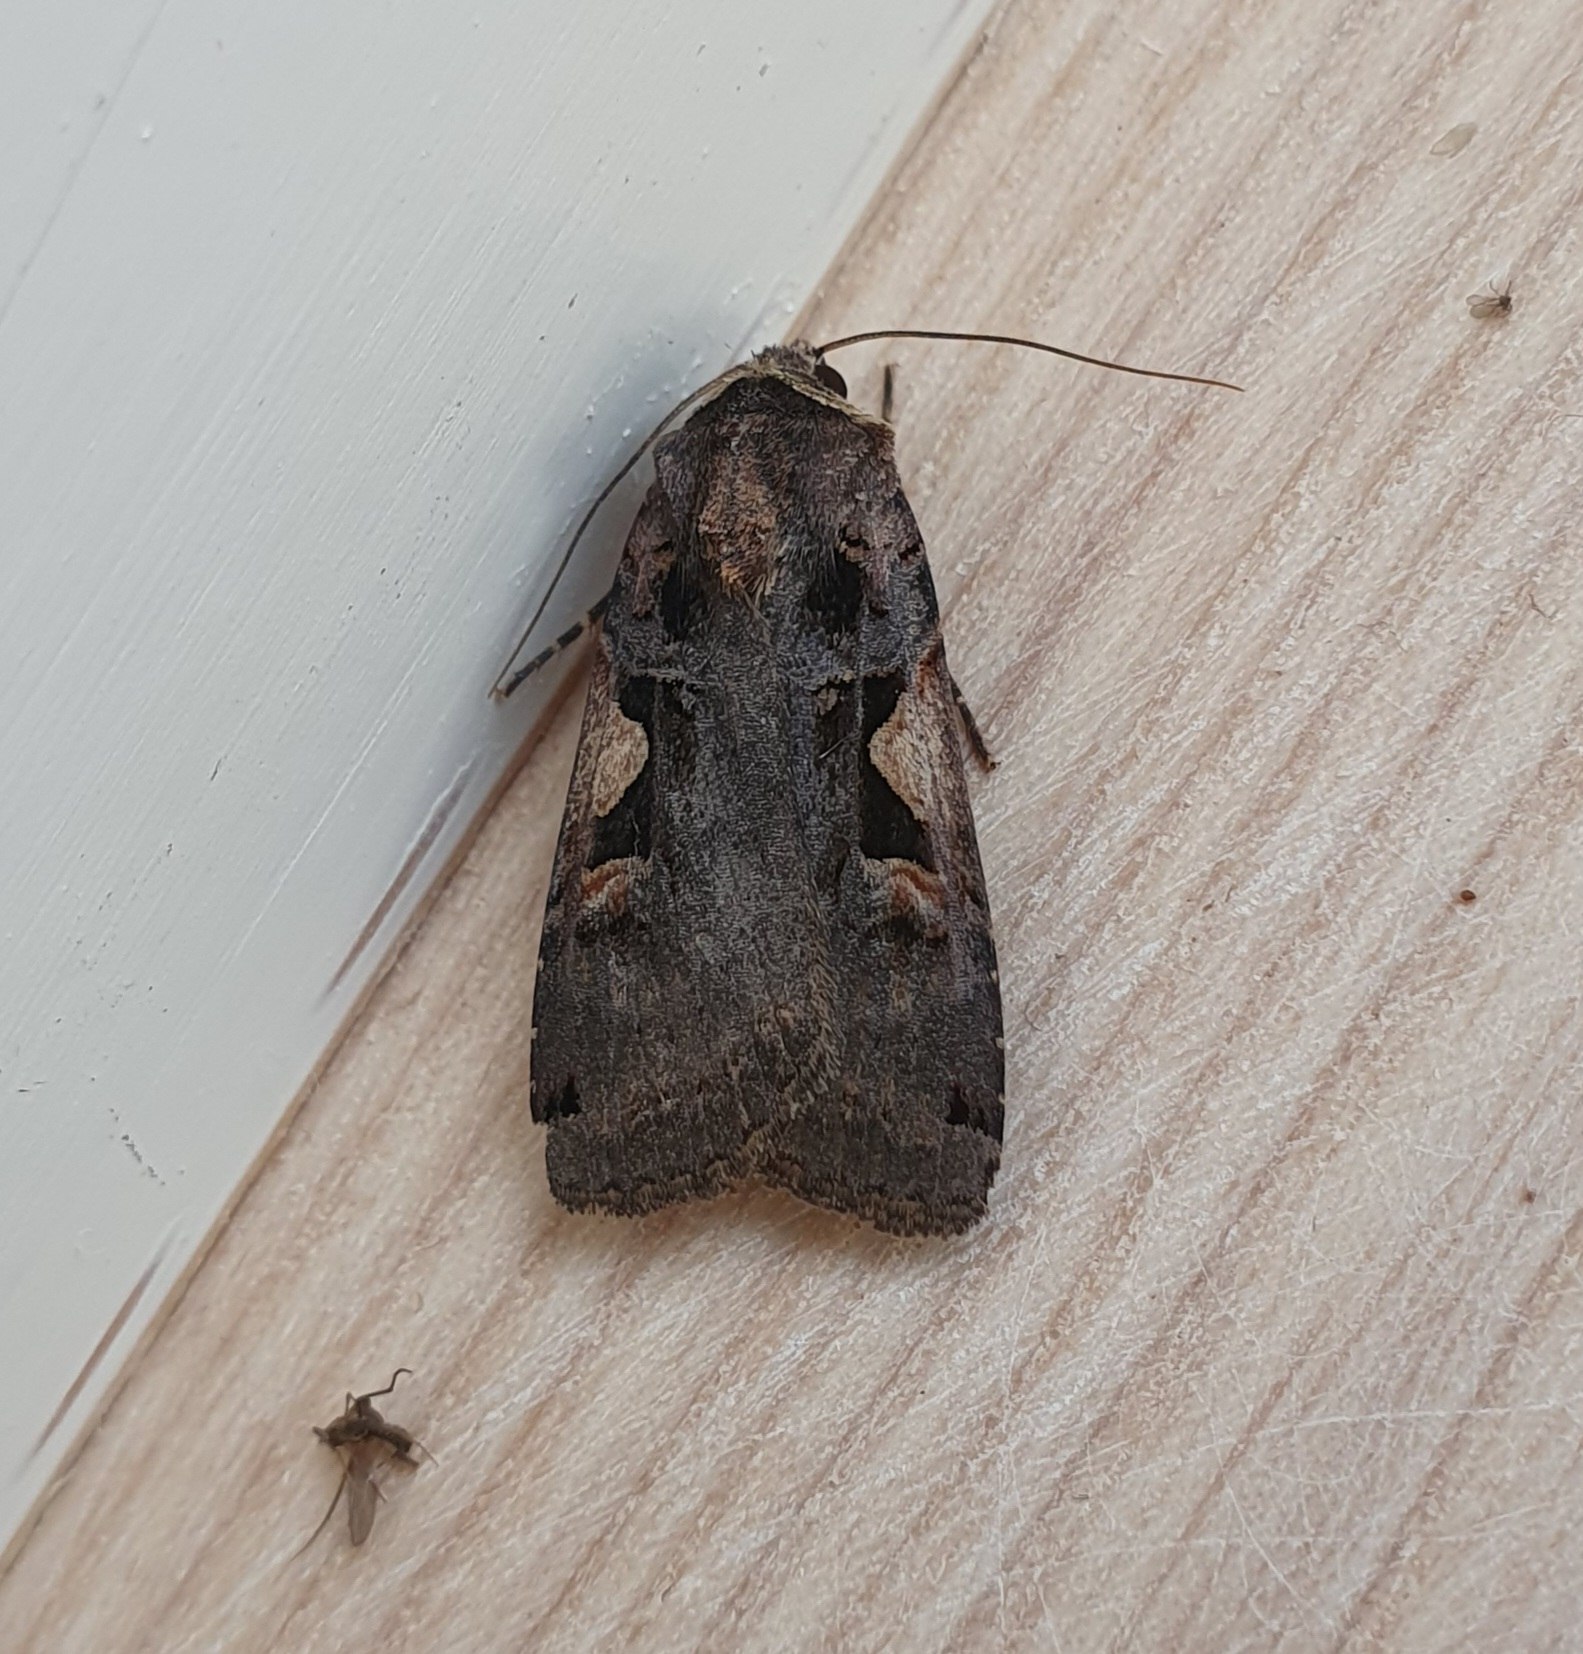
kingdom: Animalia
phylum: Arthropoda
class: Insecta
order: Lepidoptera
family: Noctuidae
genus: Xestia
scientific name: Xestia c-nigrum
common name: Det sorte c
